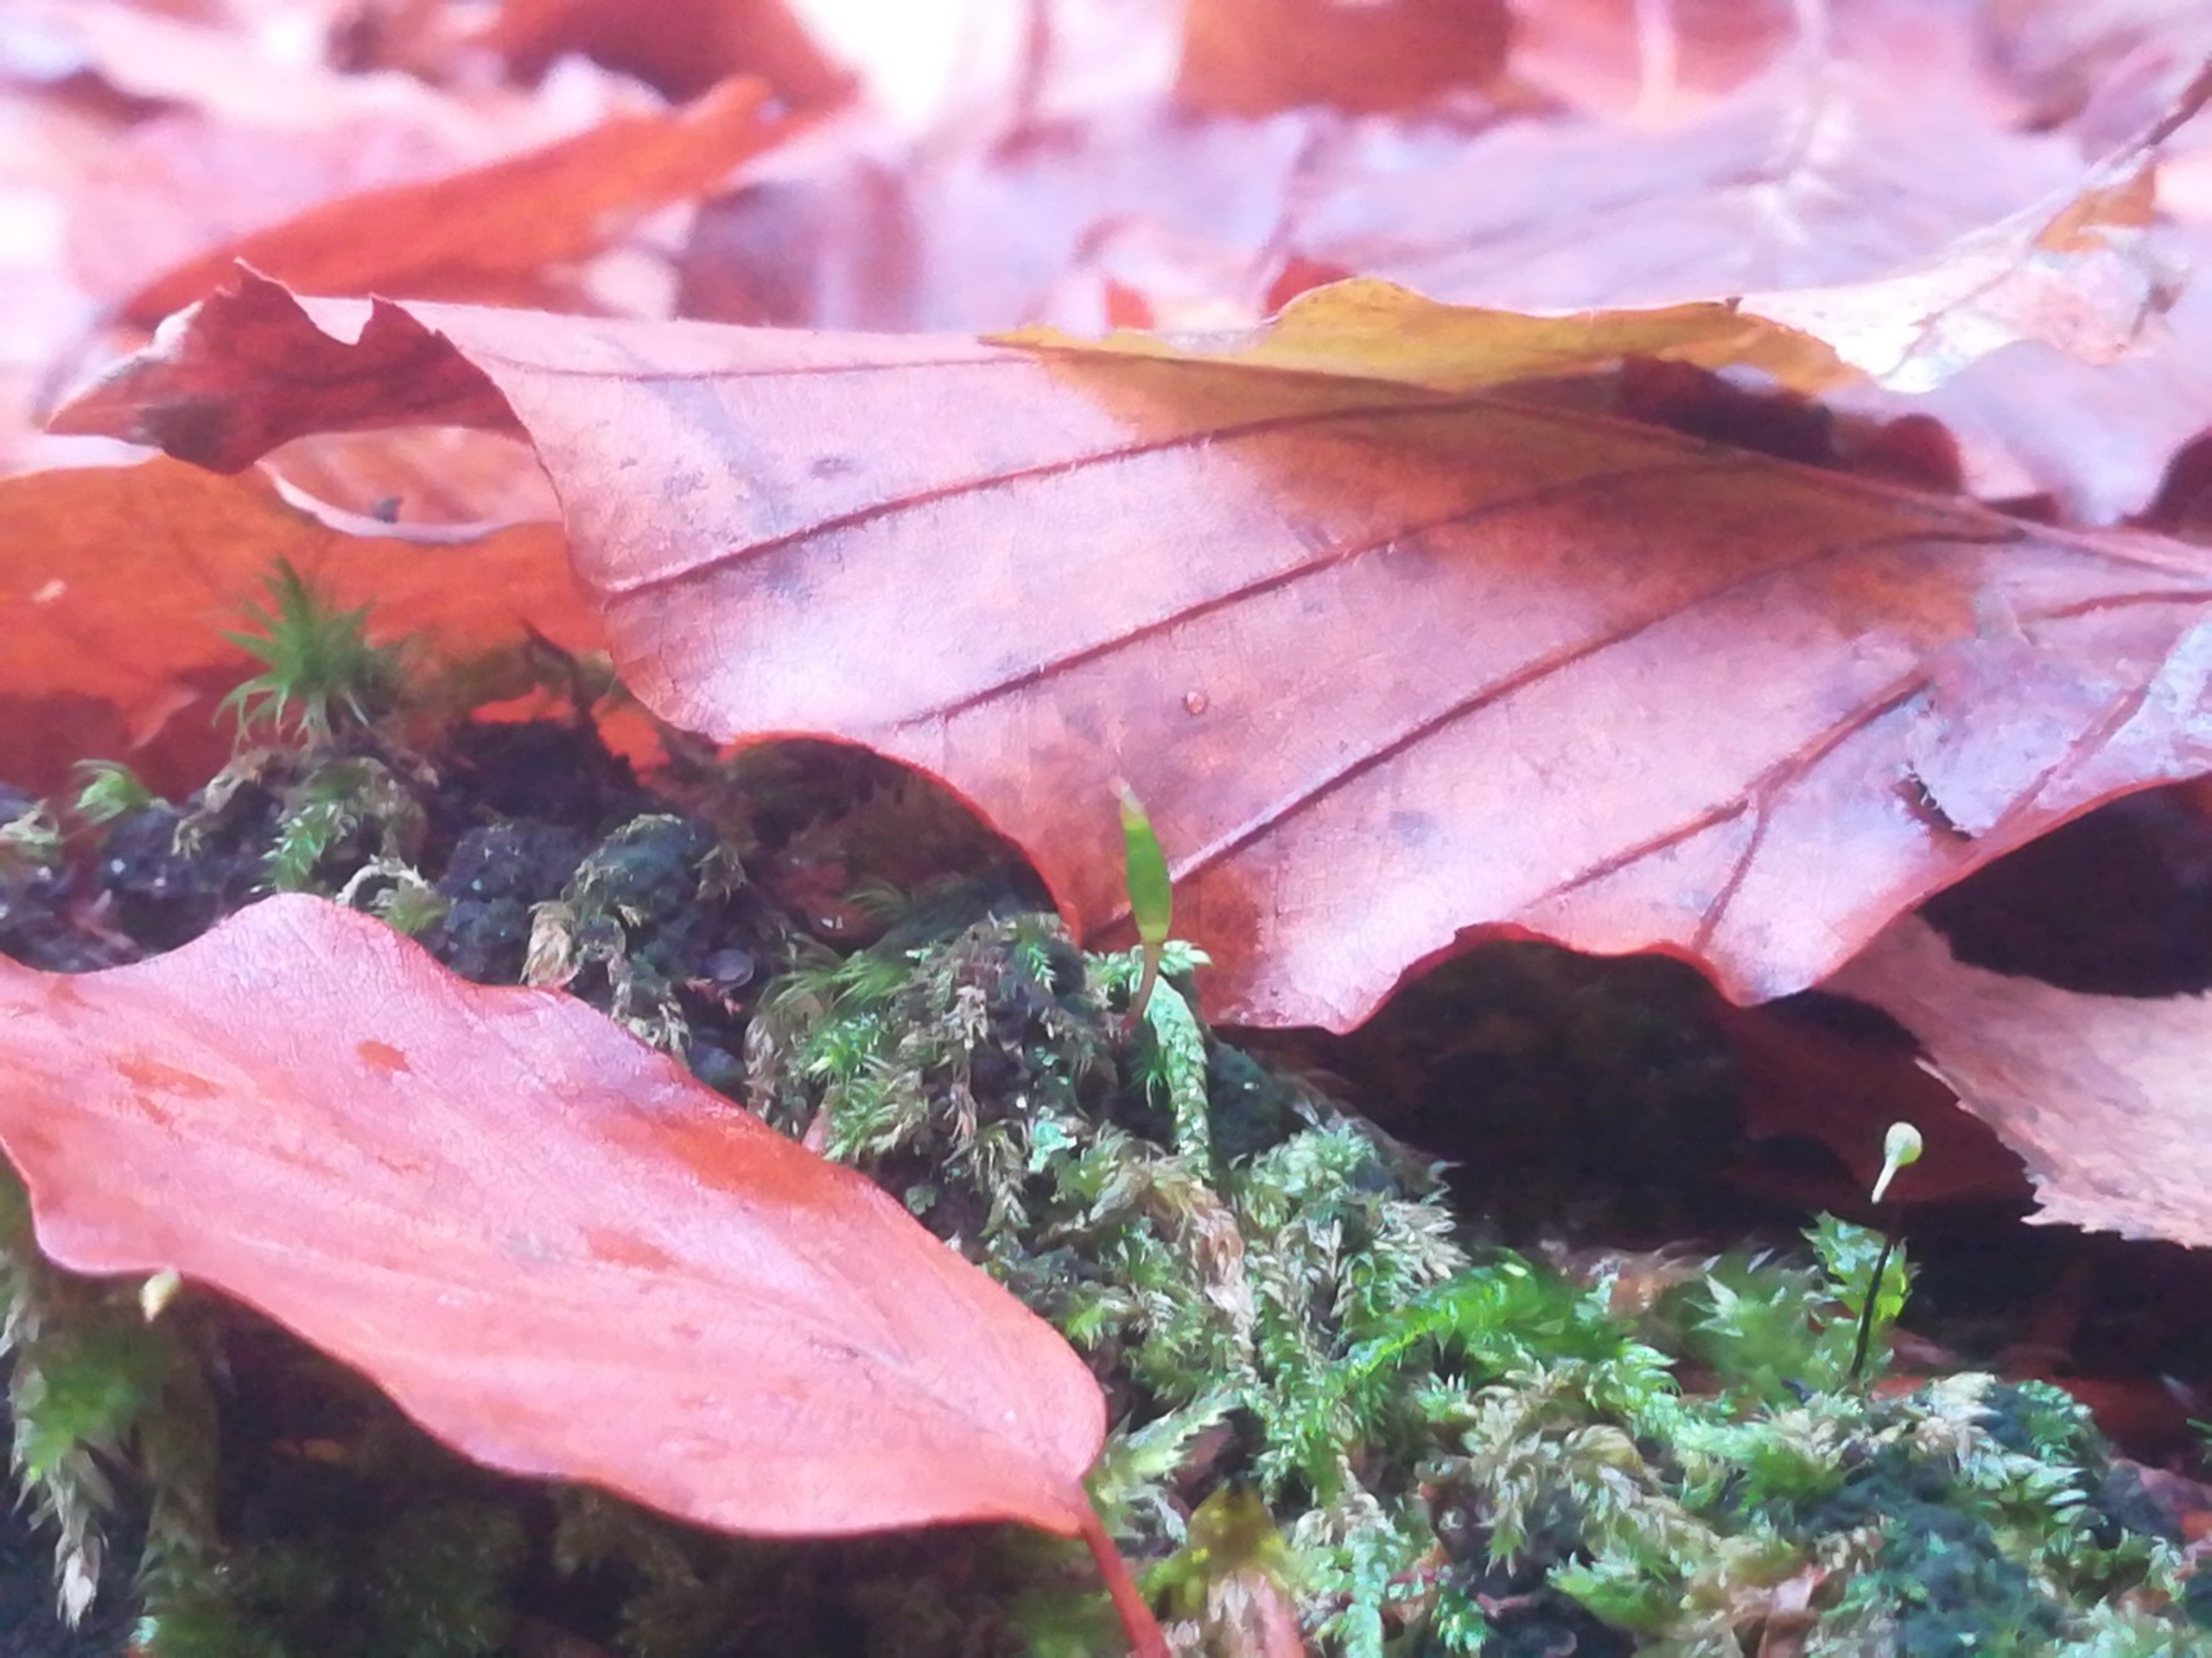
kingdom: Plantae
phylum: Bryophyta
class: Bryopsida
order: Buxbaumiales
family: Buxbaumiaceae
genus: Buxbaumia
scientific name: Buxbaumia viridis
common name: Grøn buxbaumia
